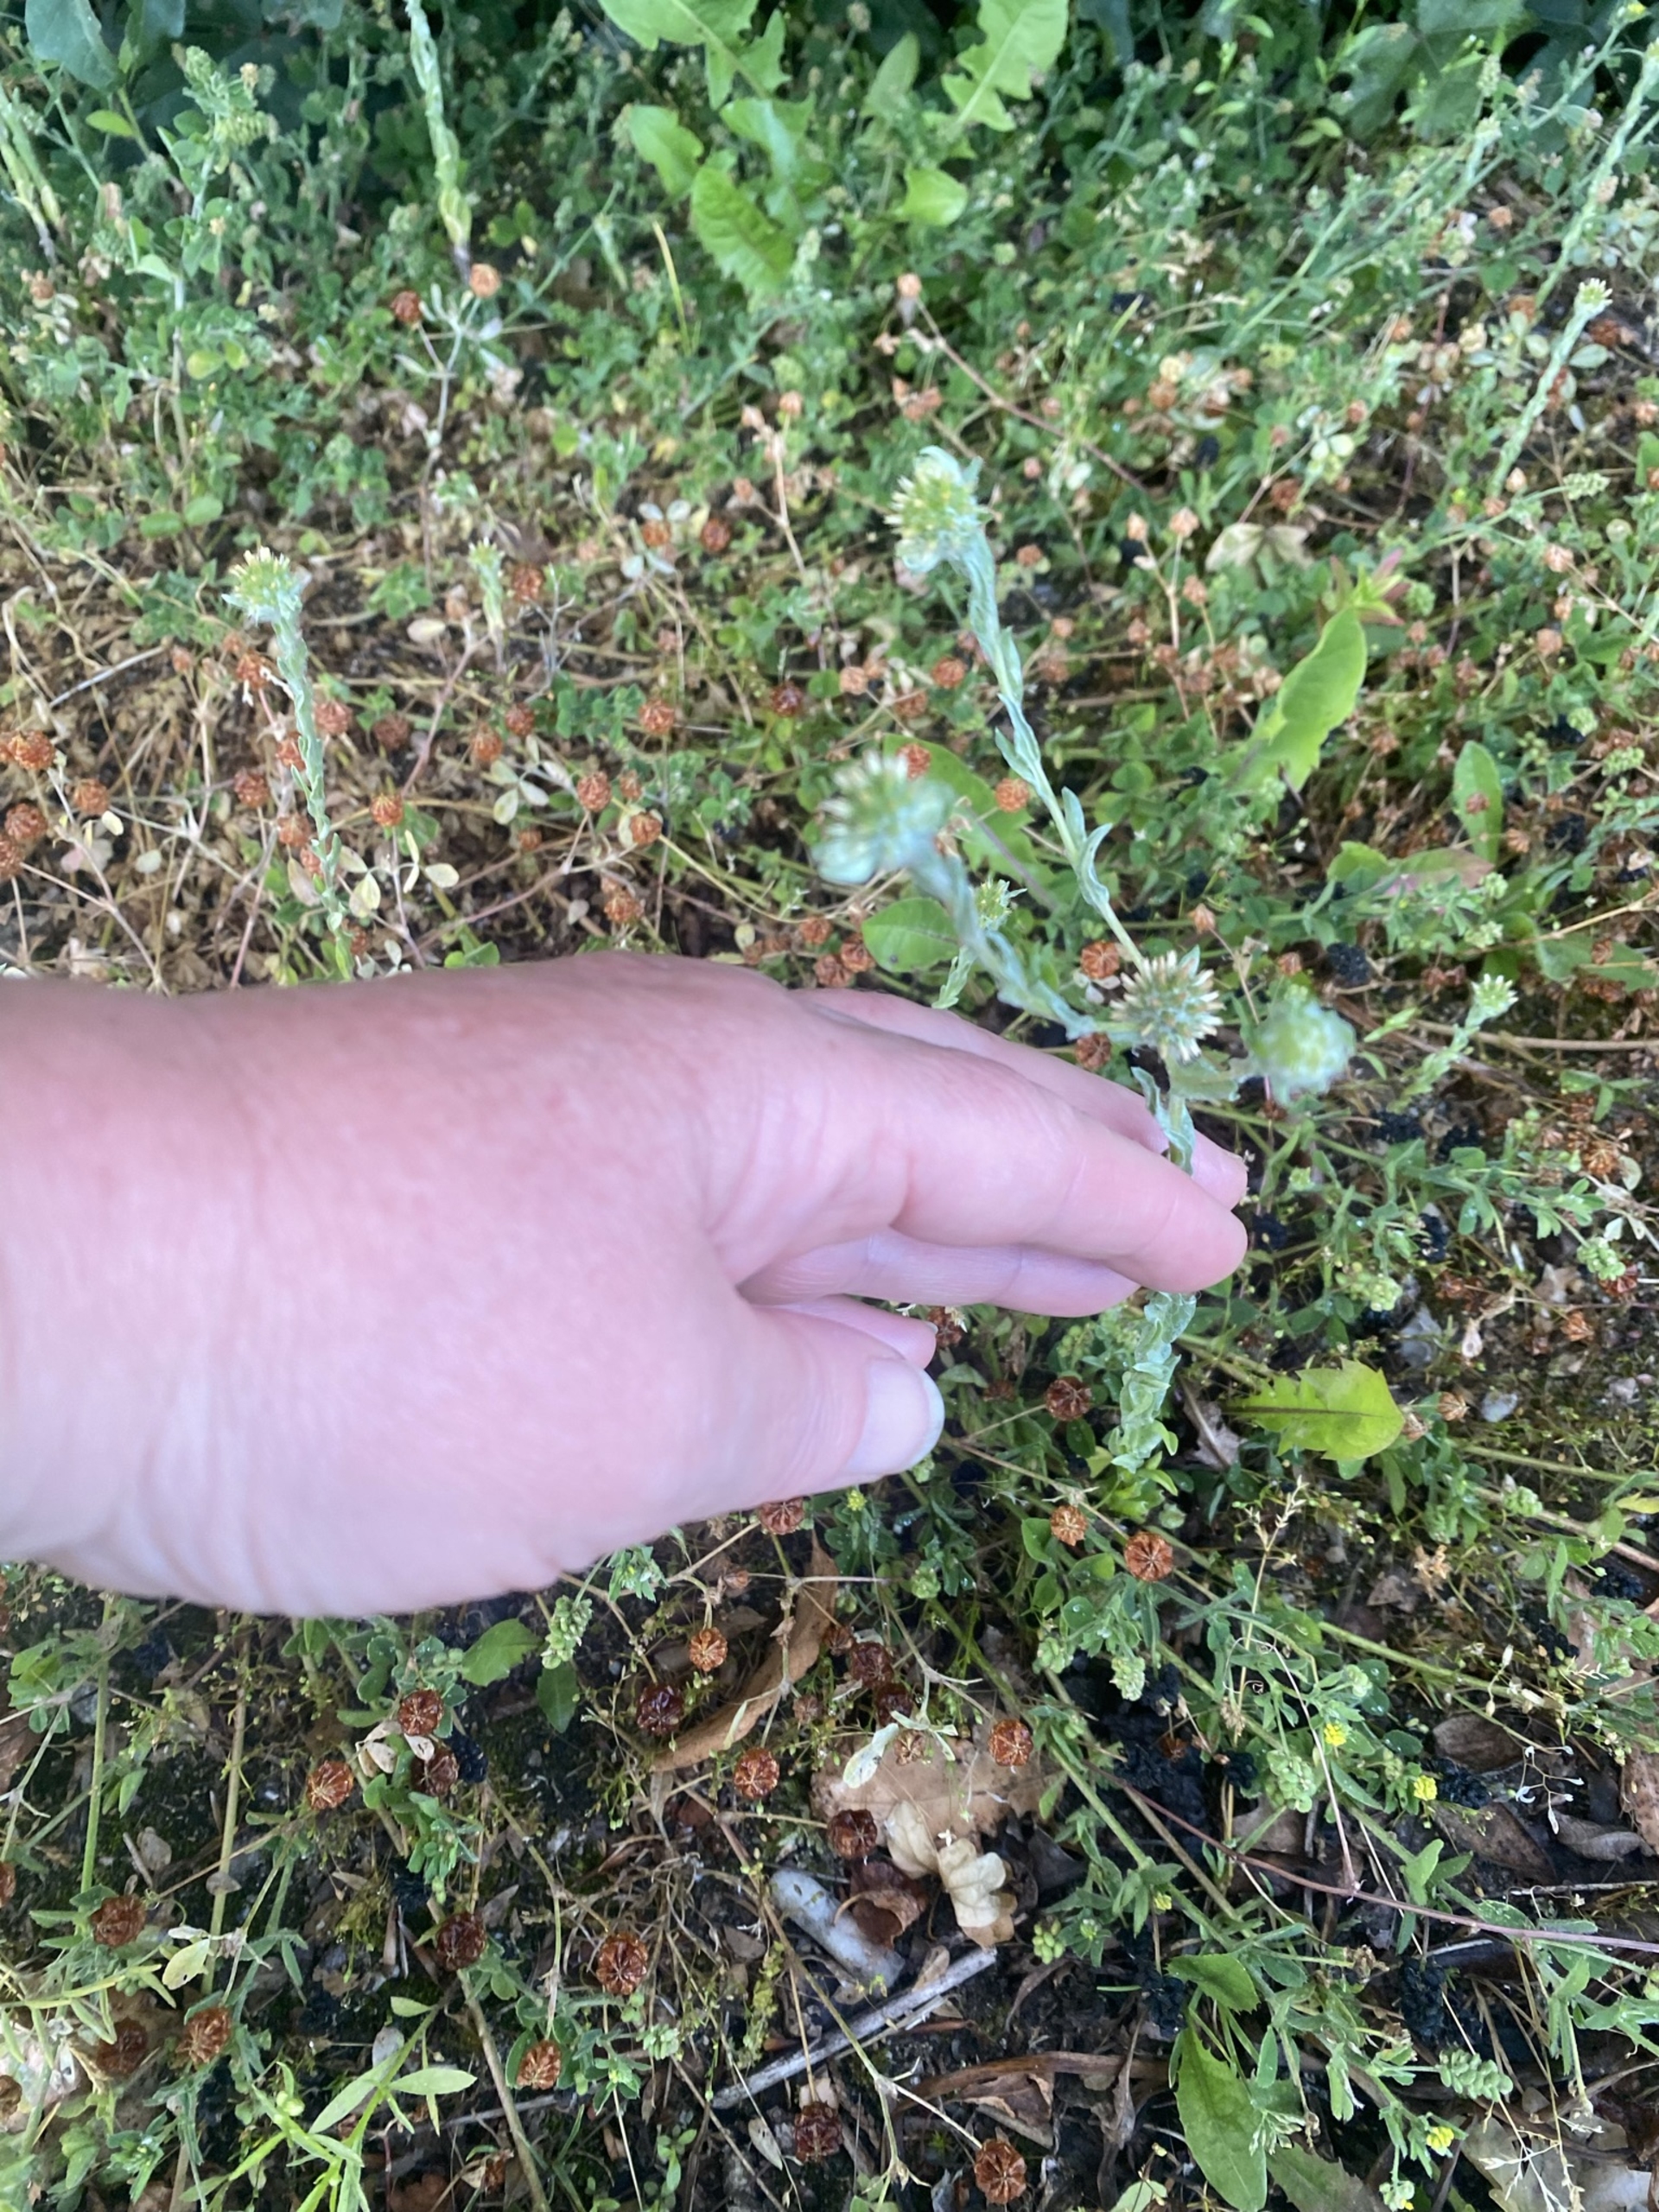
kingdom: Plantae
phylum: Tracheophyta
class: Magnoliopsida
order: Asterales
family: Asteraceae
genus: Filago
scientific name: Filago germanica
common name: Kugle-museurt
